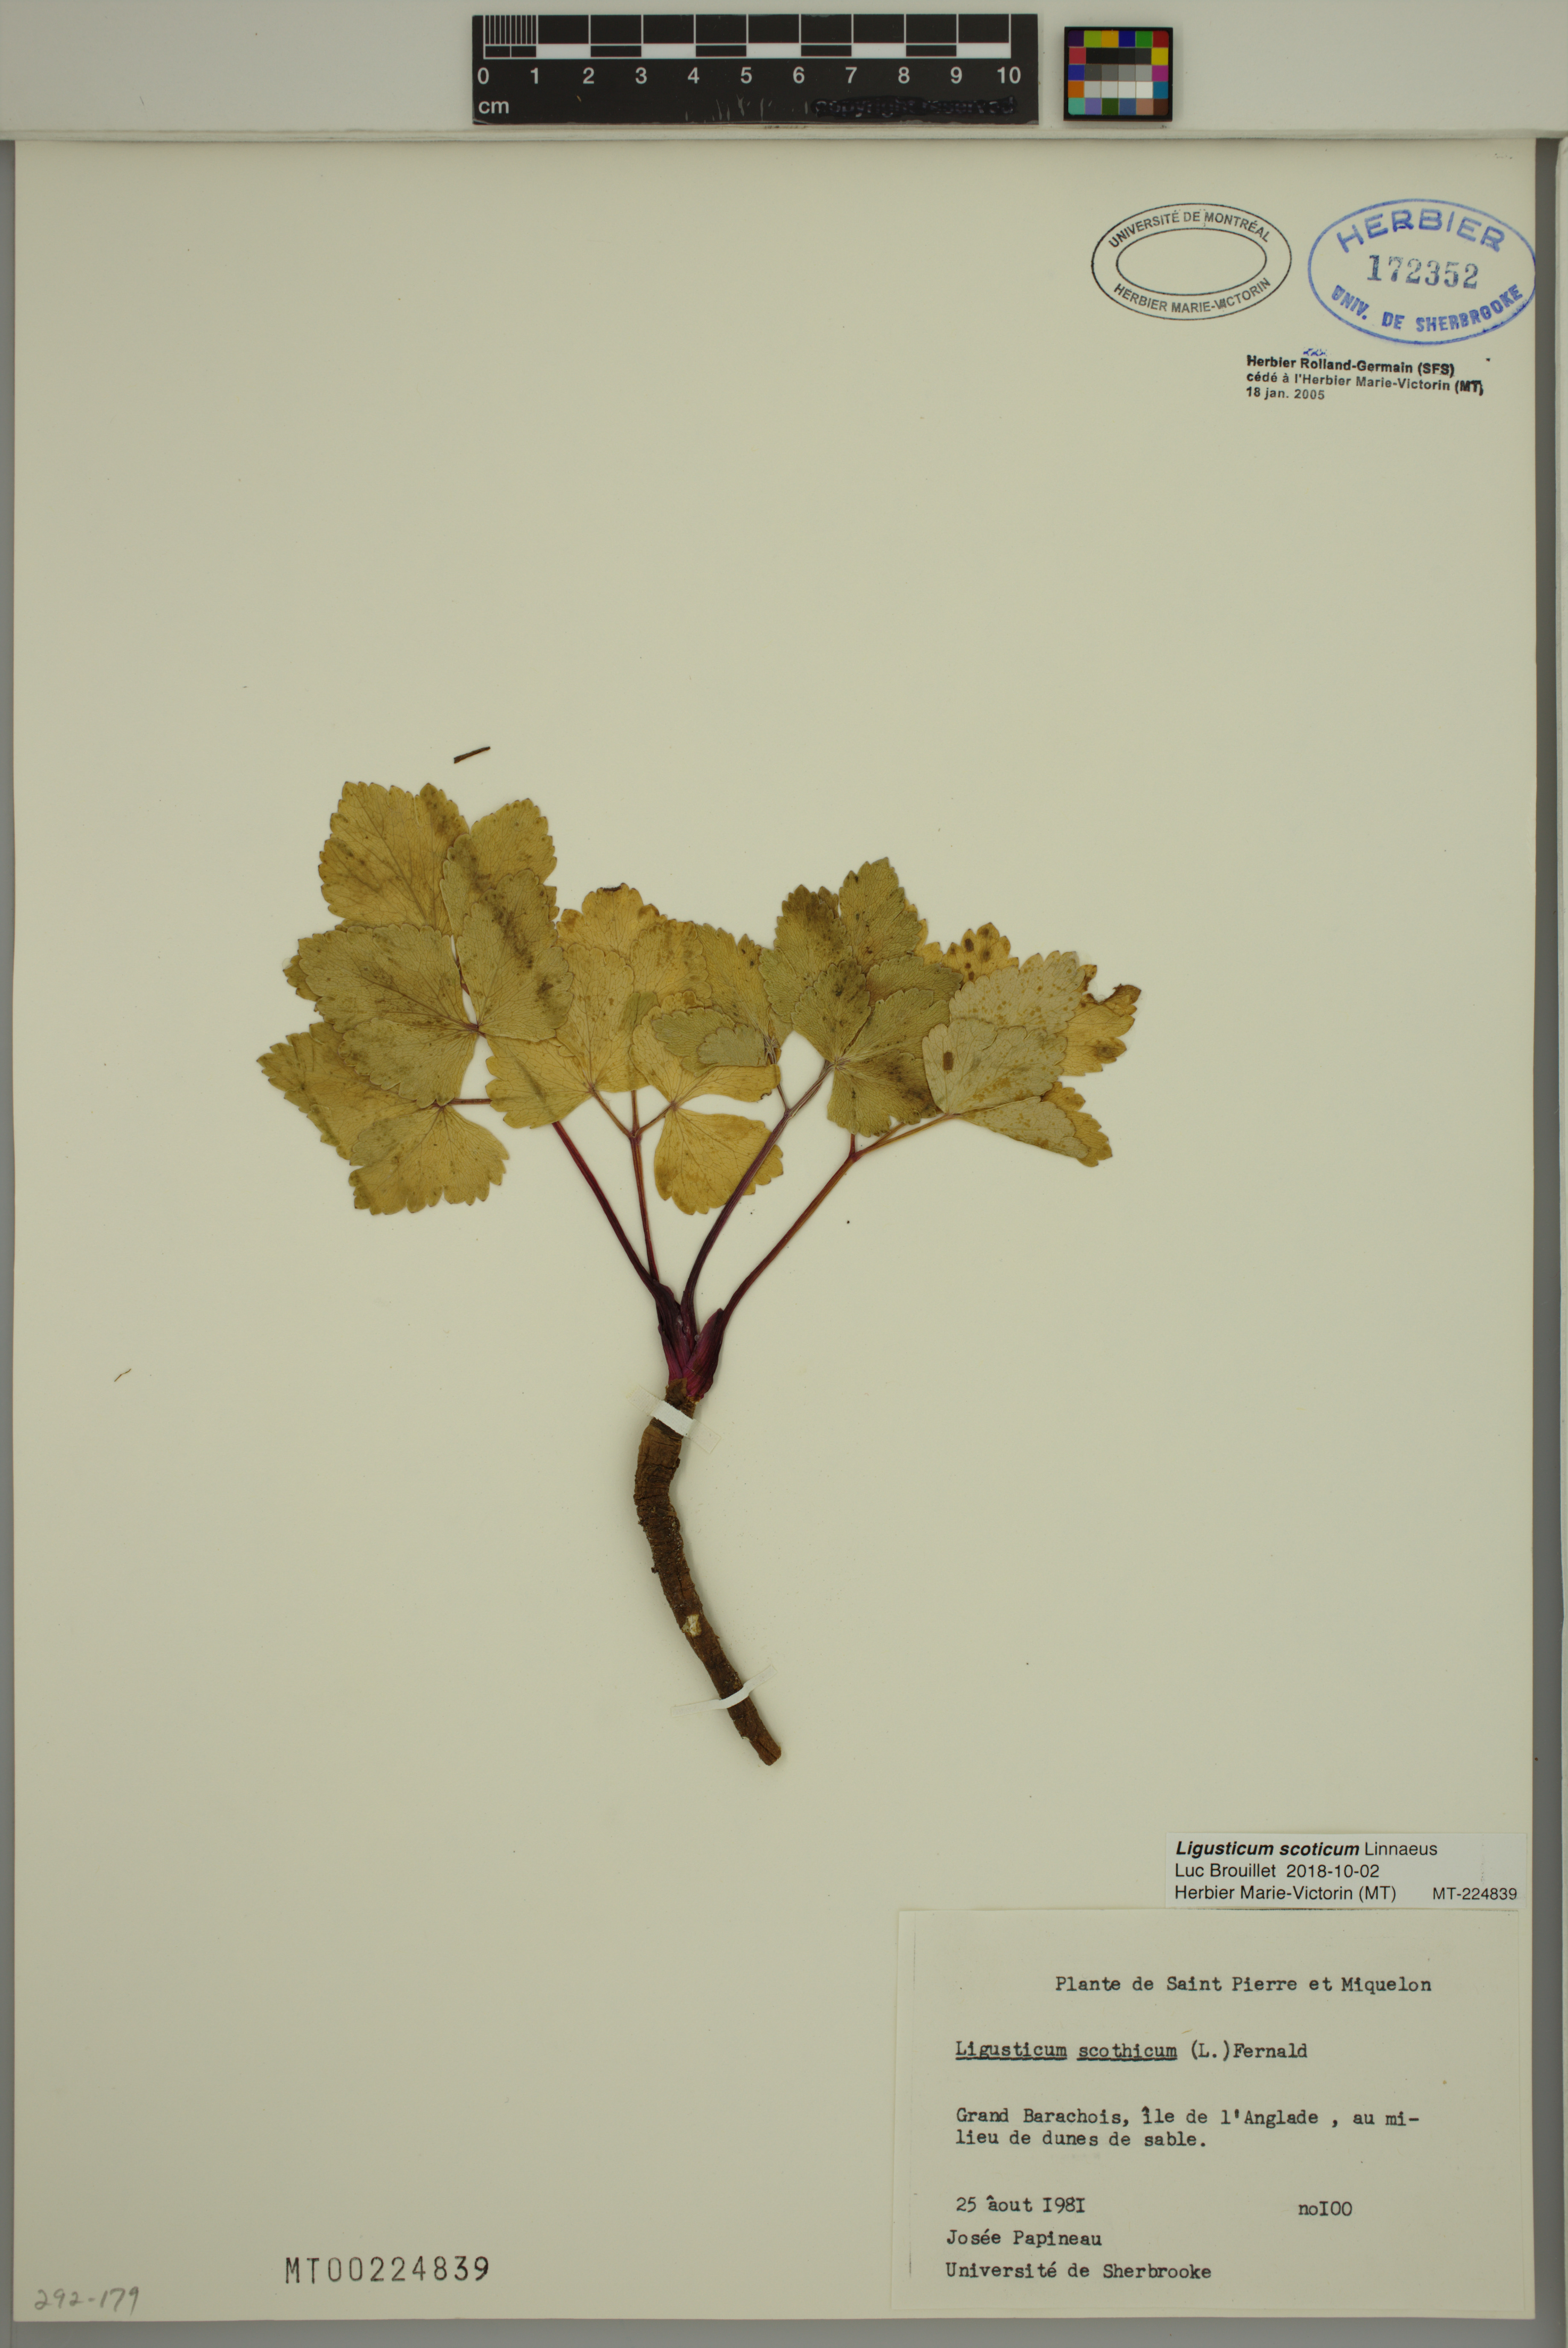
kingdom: Plantae
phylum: Tracheophyta
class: Magnoliopsida
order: Apiales
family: Apiaceae
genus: Ligusticum
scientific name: Ligusticum scothicum
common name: Beach lovage
